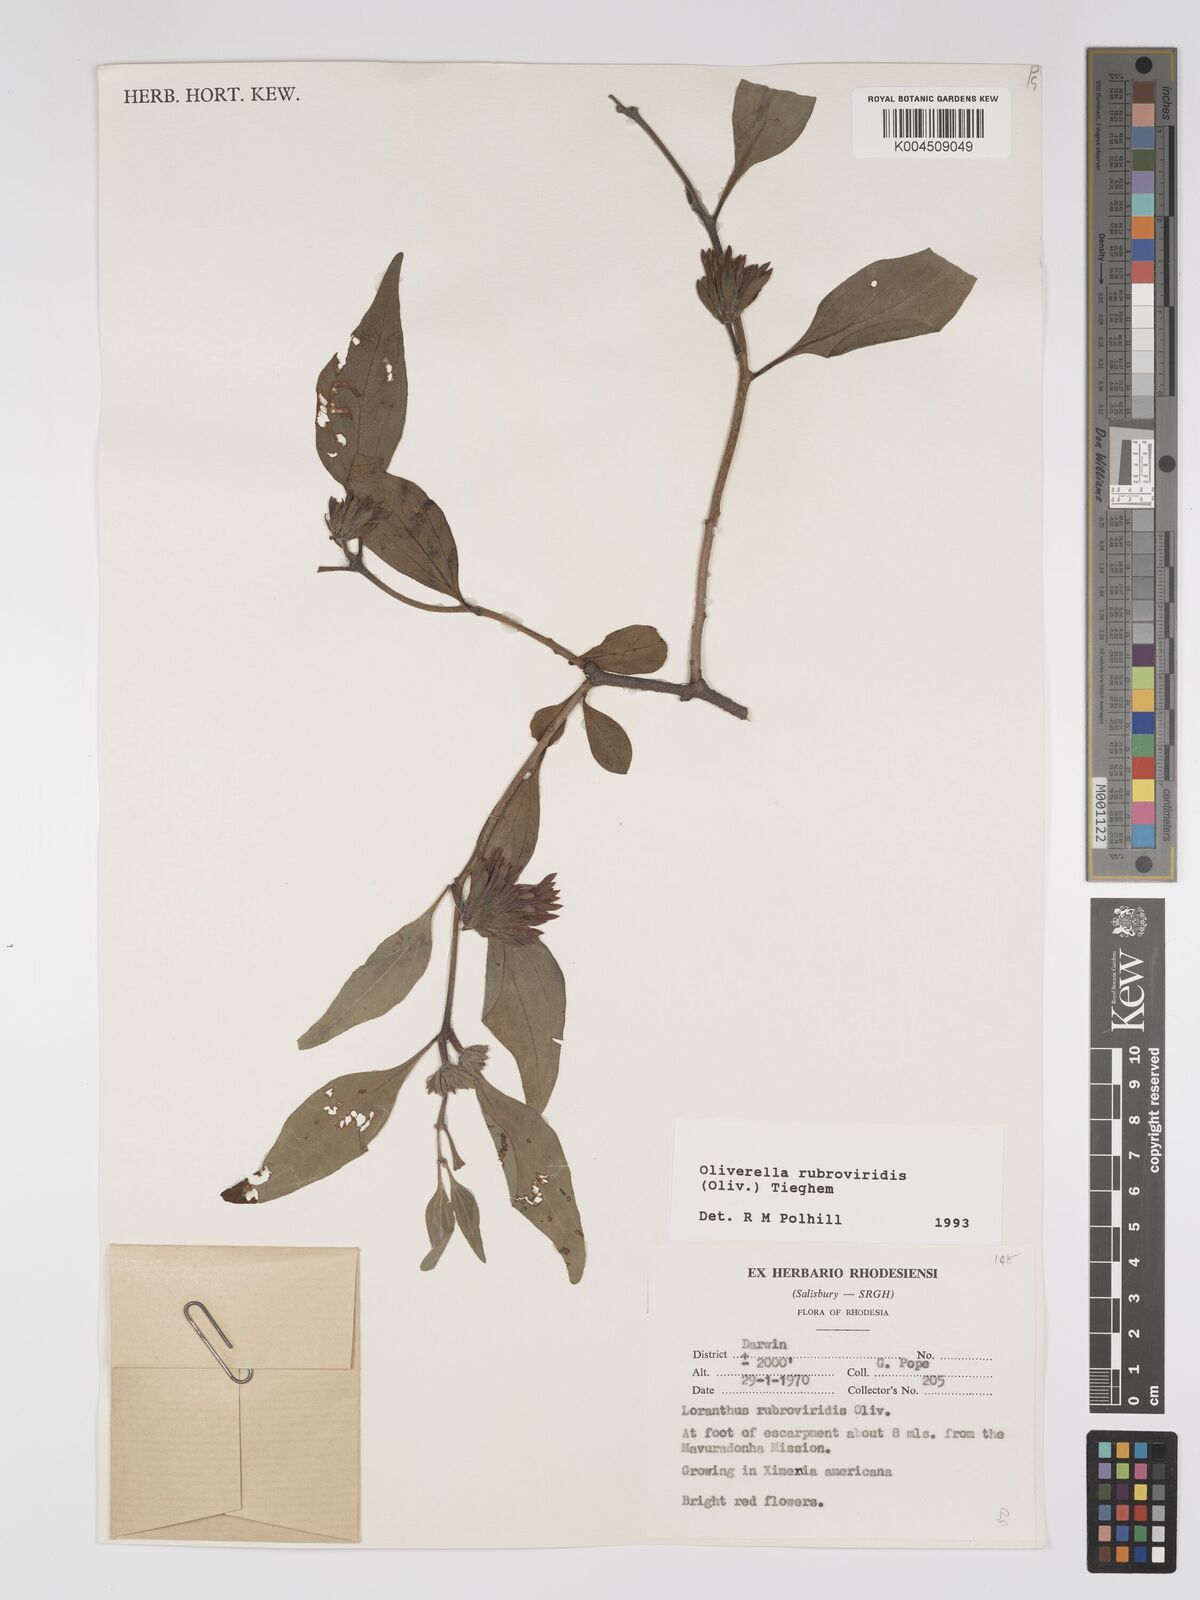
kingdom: Plantae
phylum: Tracheophyta
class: Magnoliopsida
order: Santalales
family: Loranthaceae
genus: Oliverella
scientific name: Oliverella rubroviridis
